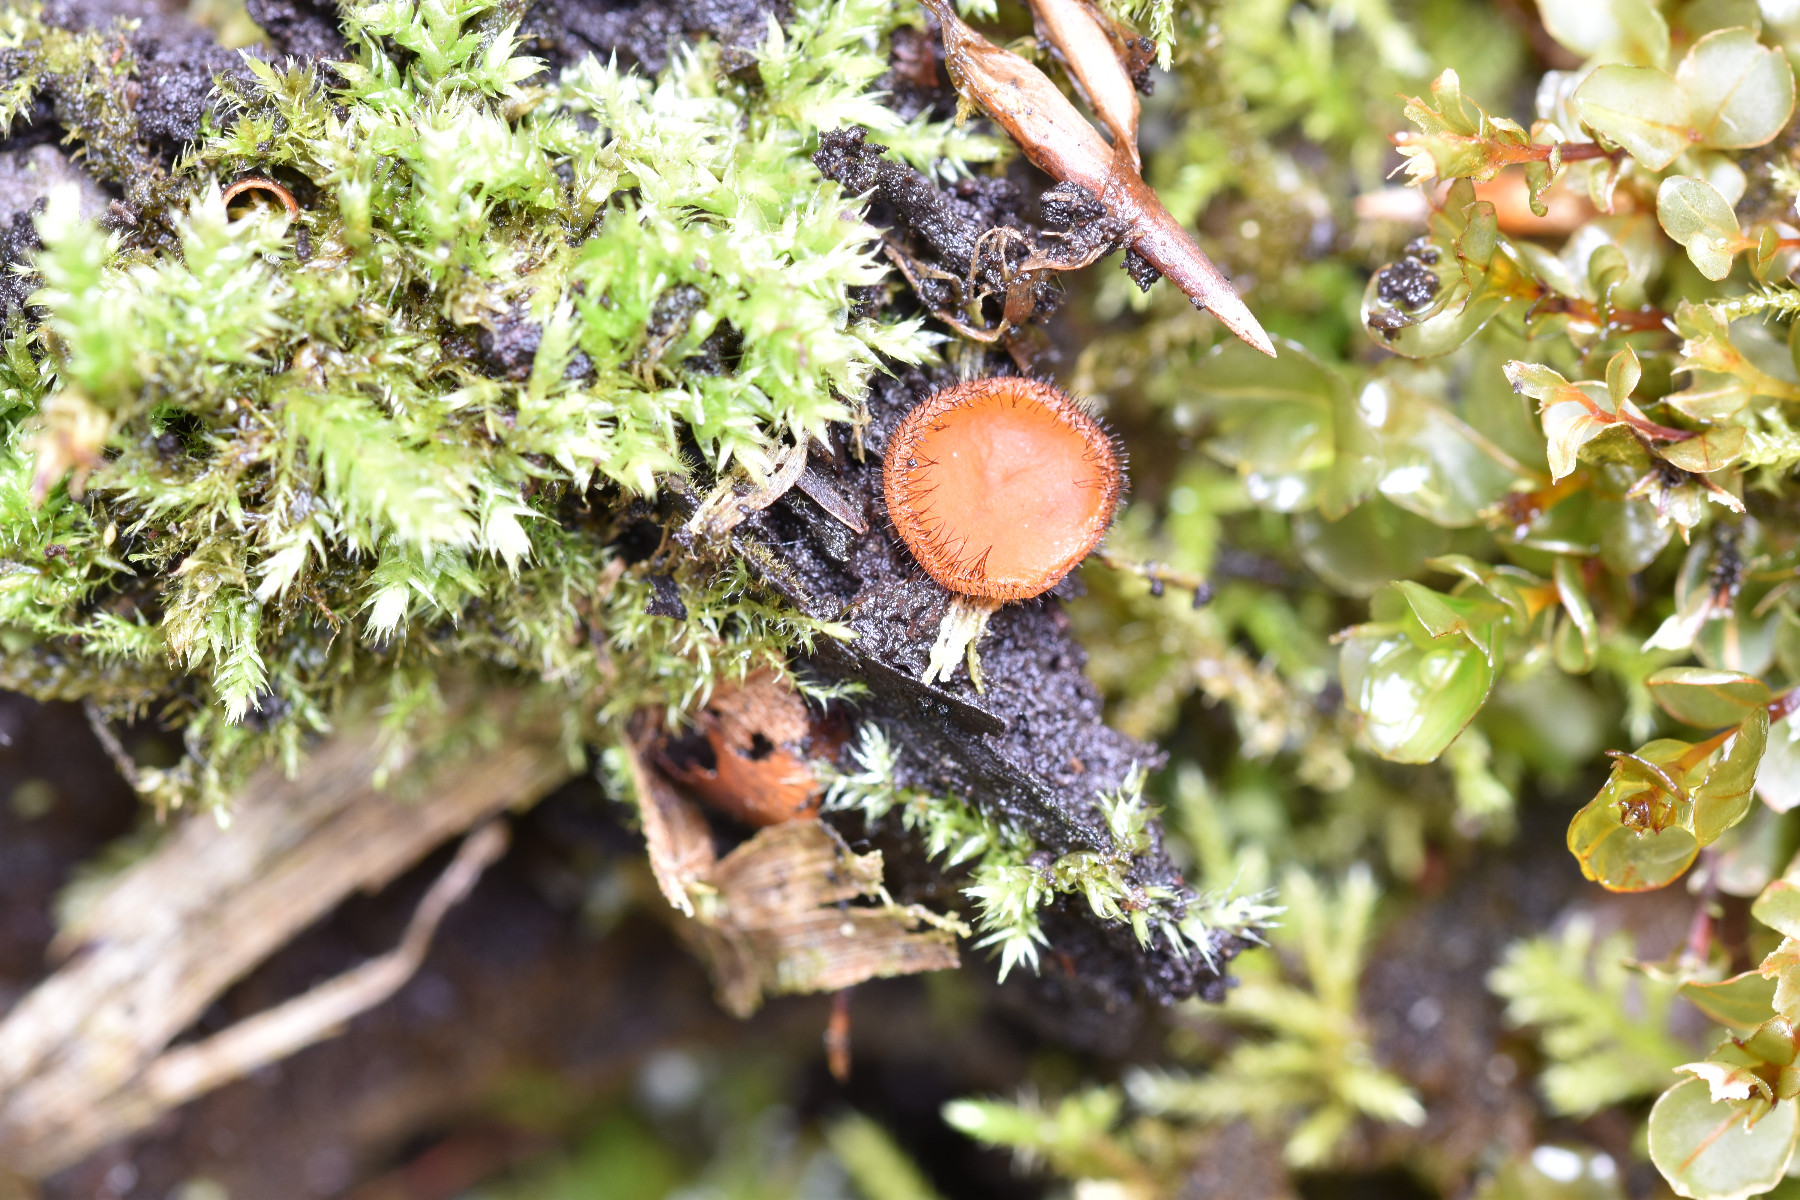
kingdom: Fungi
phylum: Ascomycota
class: Pezizomycetes
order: Pezizales
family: Pyronemataceae
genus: Scutellinia
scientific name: Scutellinia scutellata
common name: frynset skjoldbæger
